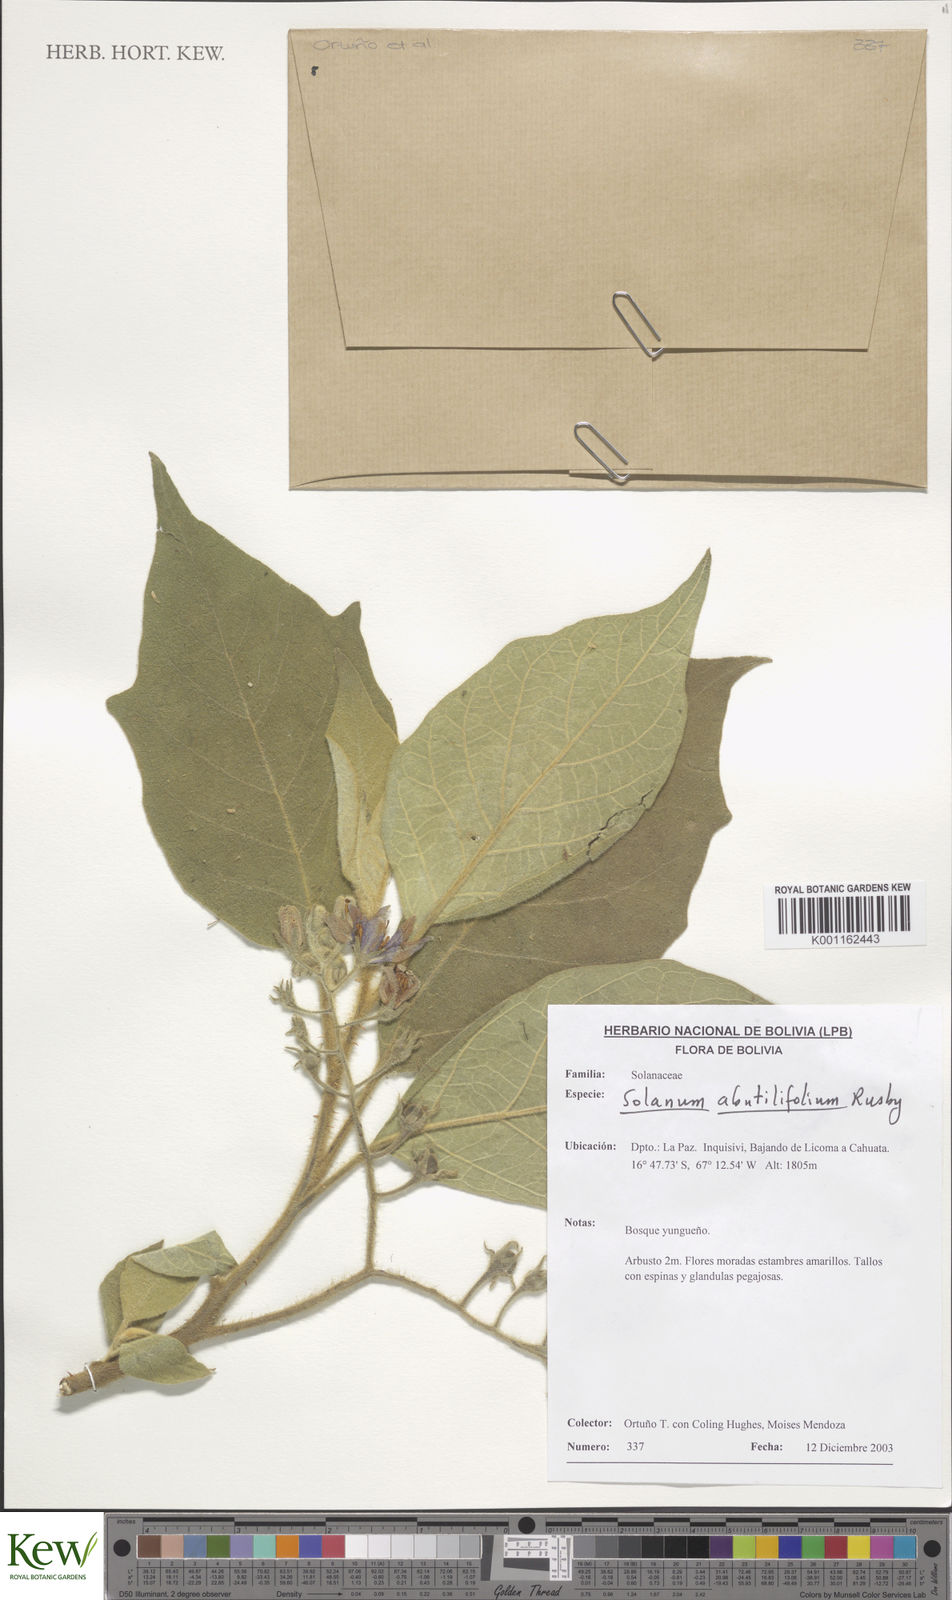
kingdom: Plantae
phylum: Tracheophyta
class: Magnoliopsida
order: Solanales
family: Solanaceae
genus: Solanum
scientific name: Solanum abutilifolium
